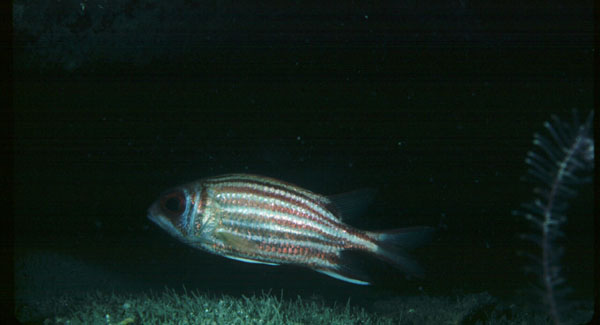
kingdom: Animalia
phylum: Chordata
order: Beryciformes
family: Holocentridae
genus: Sargocentron
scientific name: Sargocentron rubrum
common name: Redcoat
